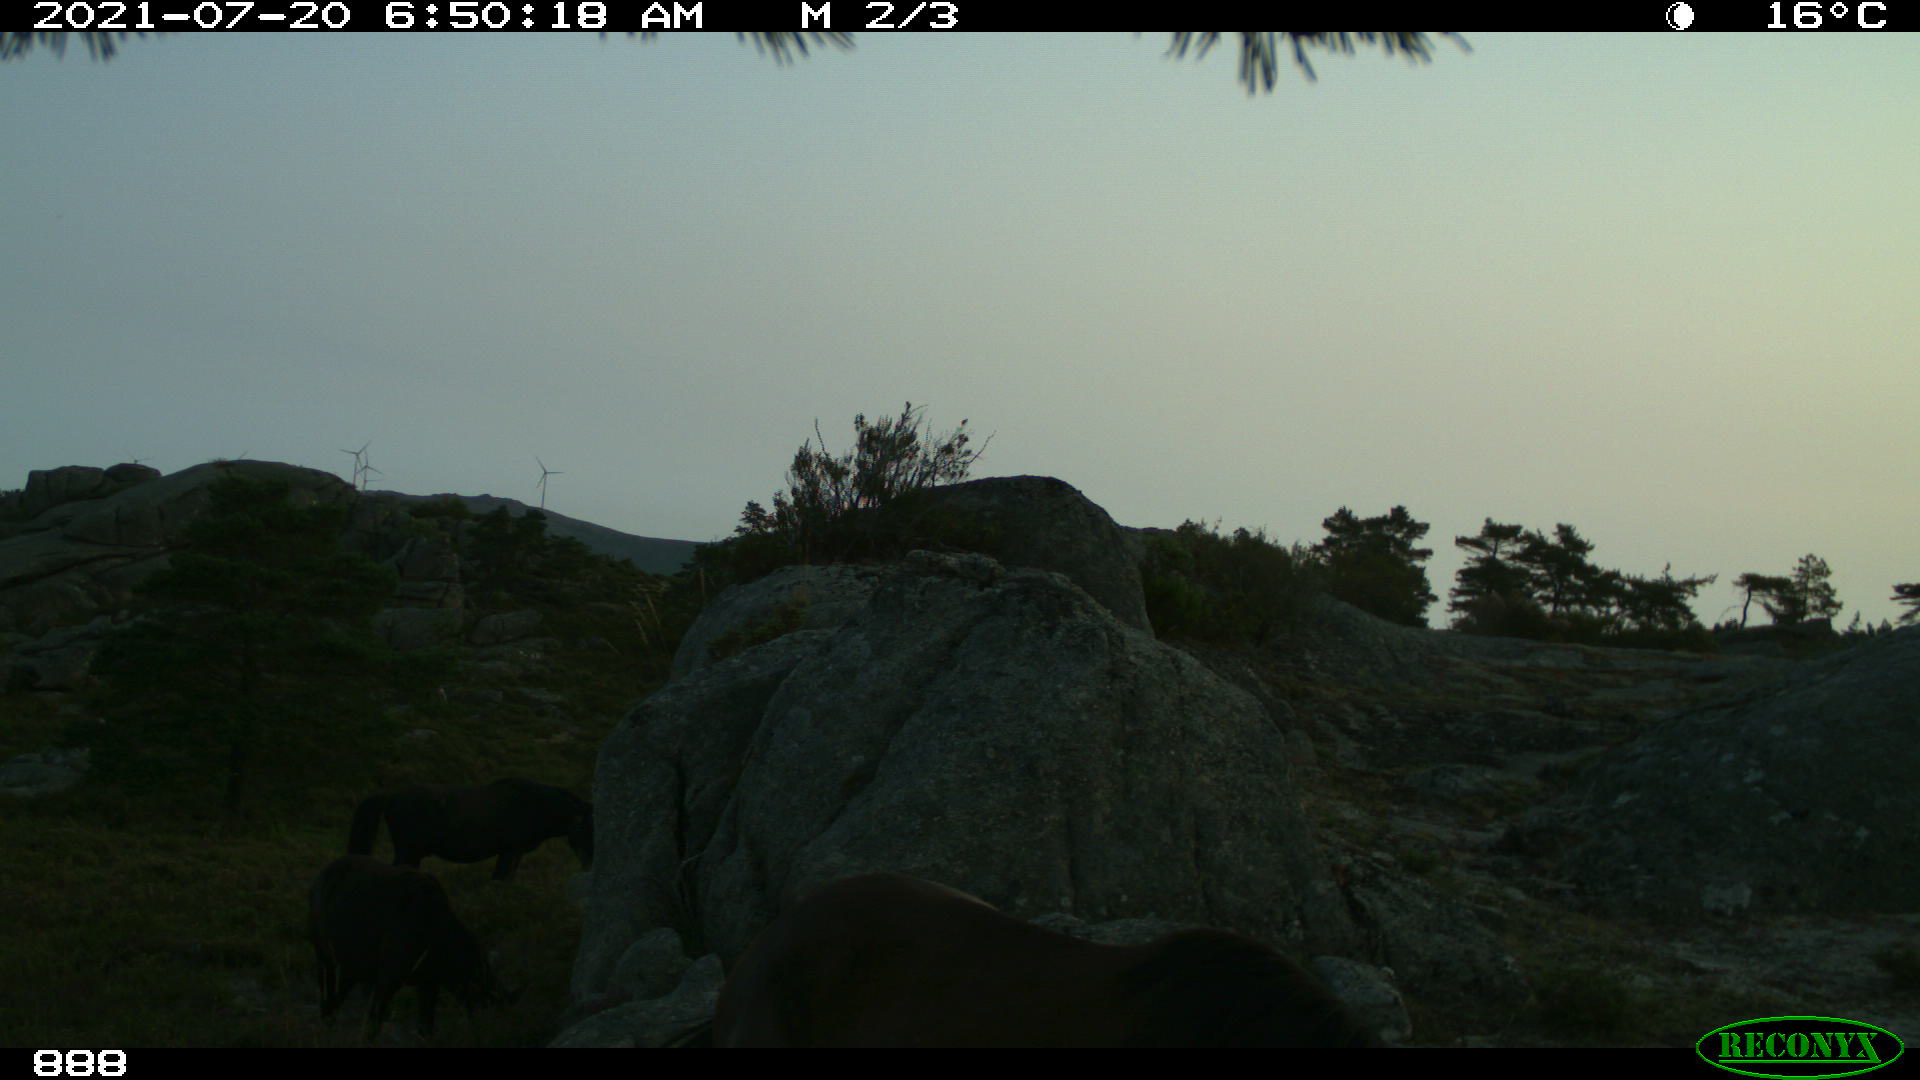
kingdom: Animalia
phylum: Chordata
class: Mammalia
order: Perissodactyla
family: Equidae
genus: Equus
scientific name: Equus caballus
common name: Horse
